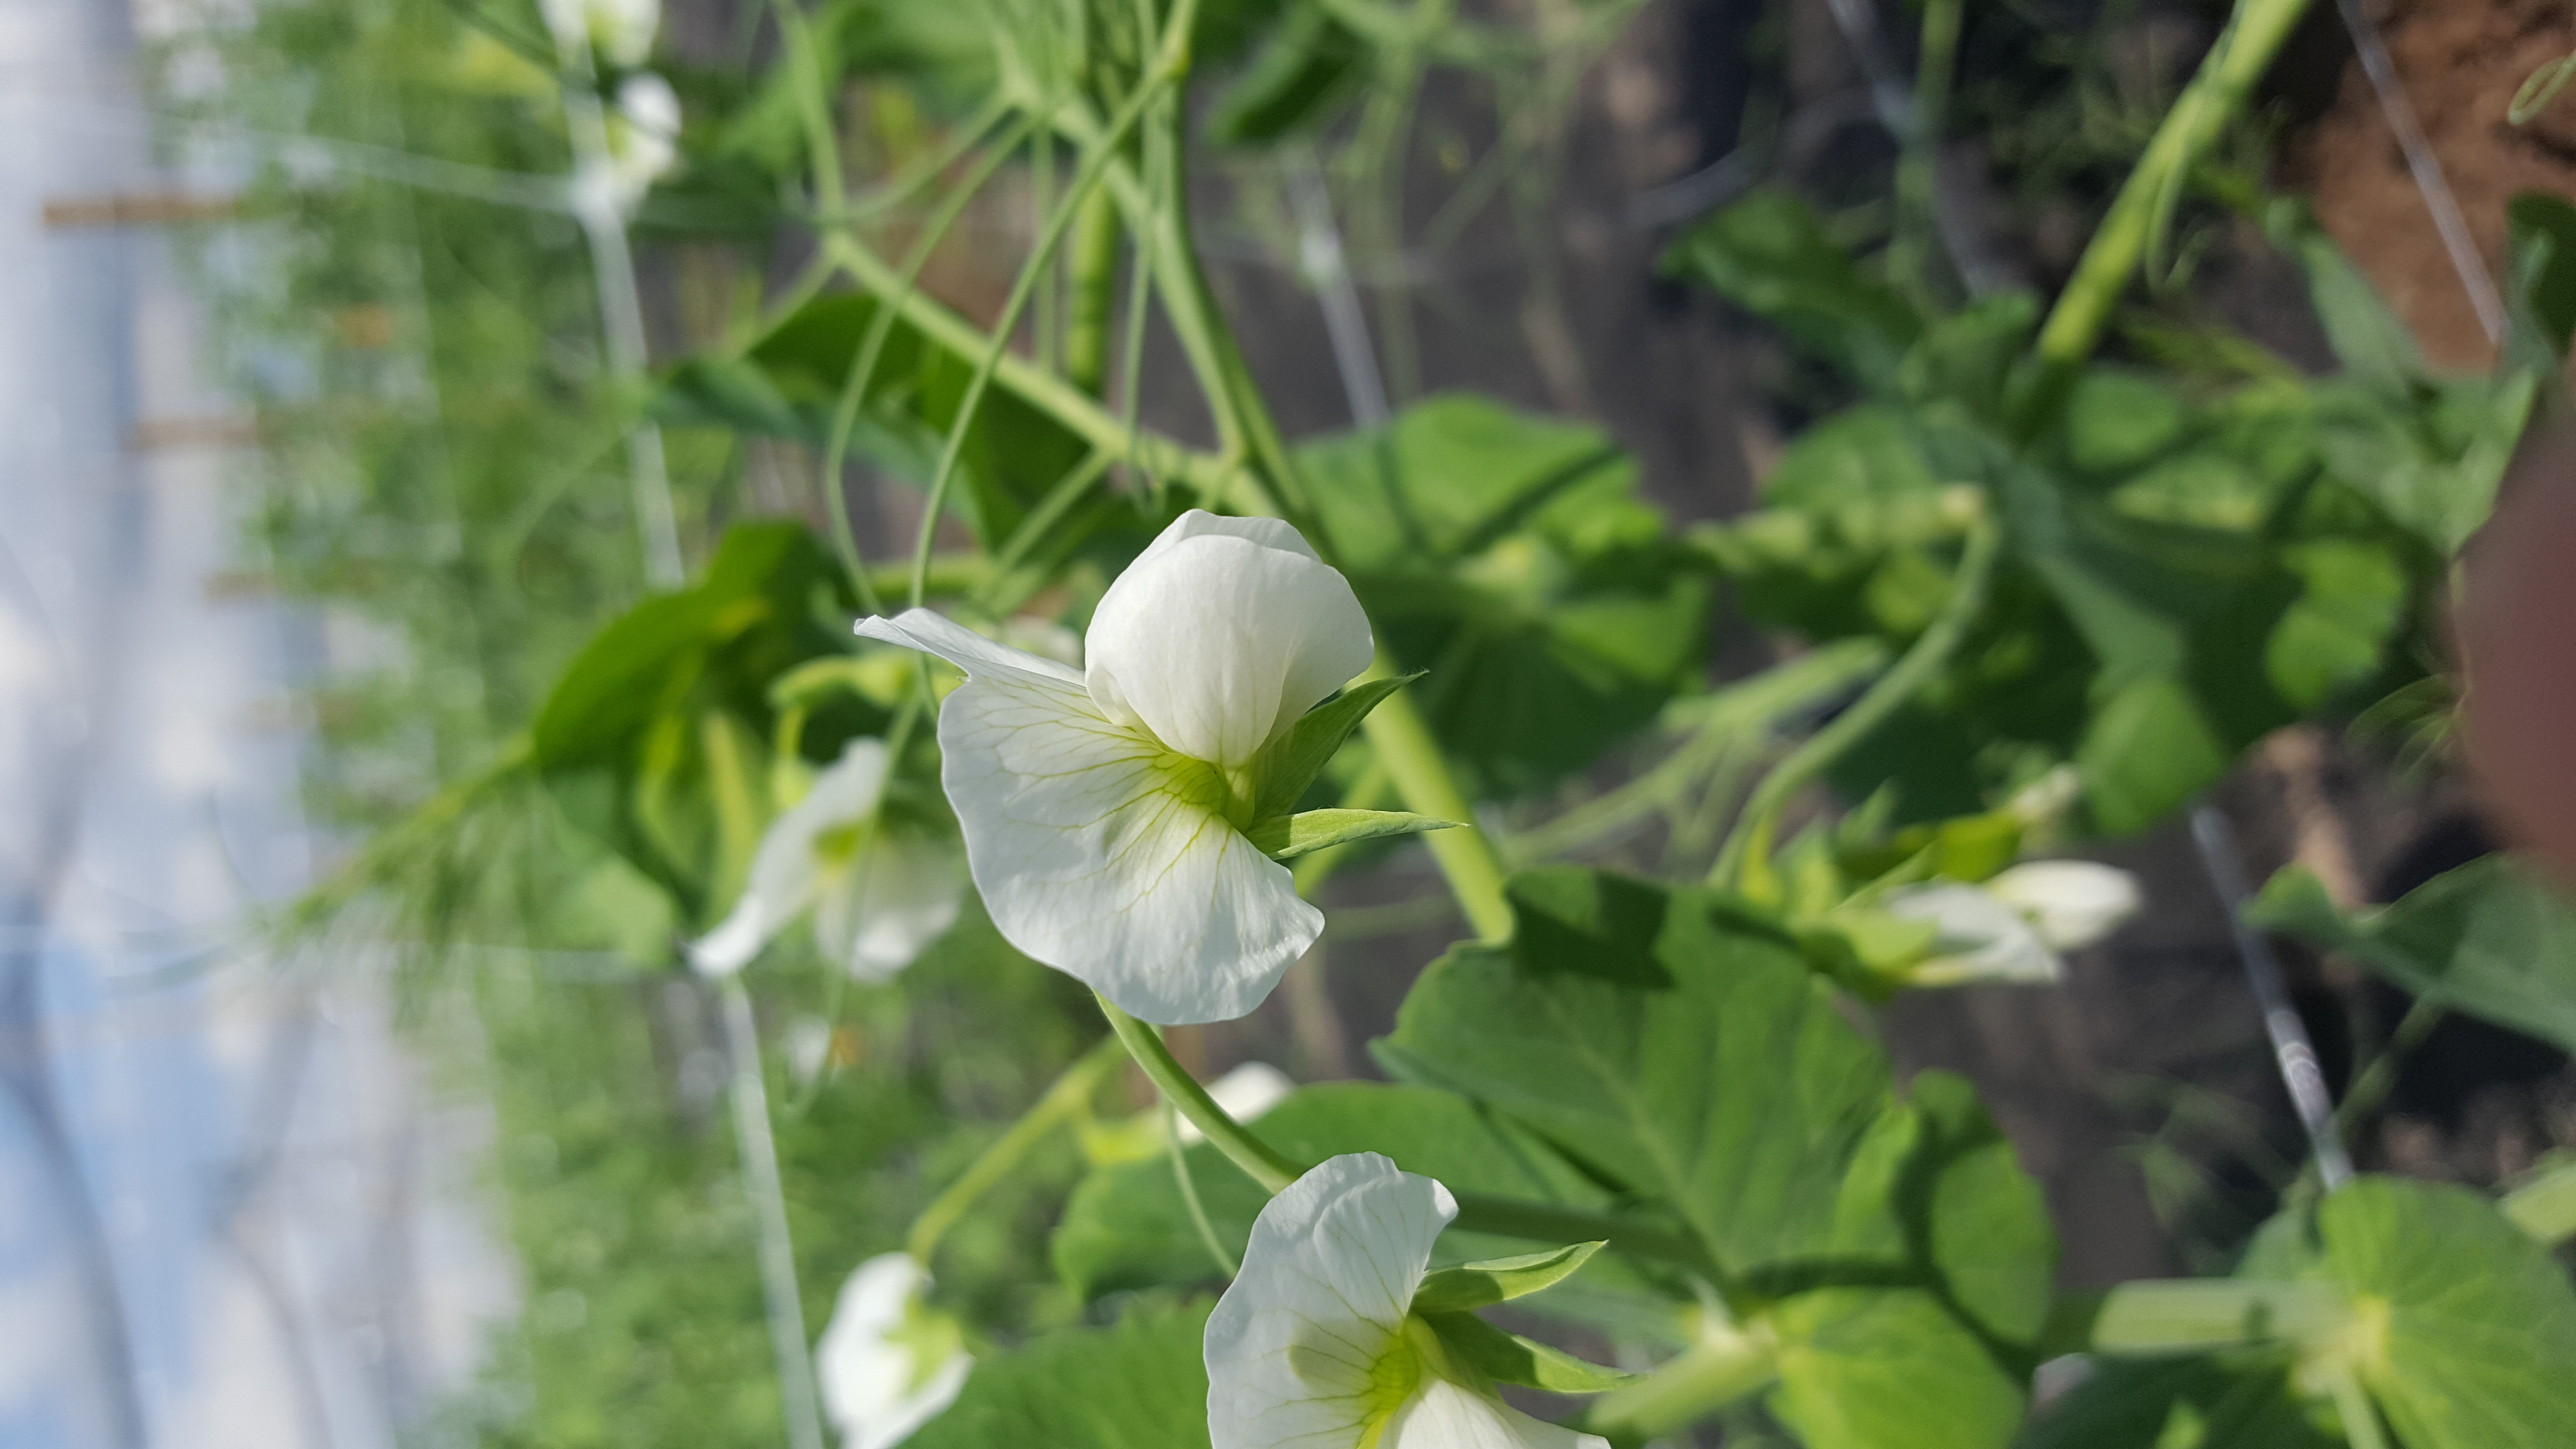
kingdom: Plantae
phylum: Tracheophyta
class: Magnoliopsida
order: Fabales
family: Fabaceae
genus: Lathyrus
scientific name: Lathyrus oleraceus
